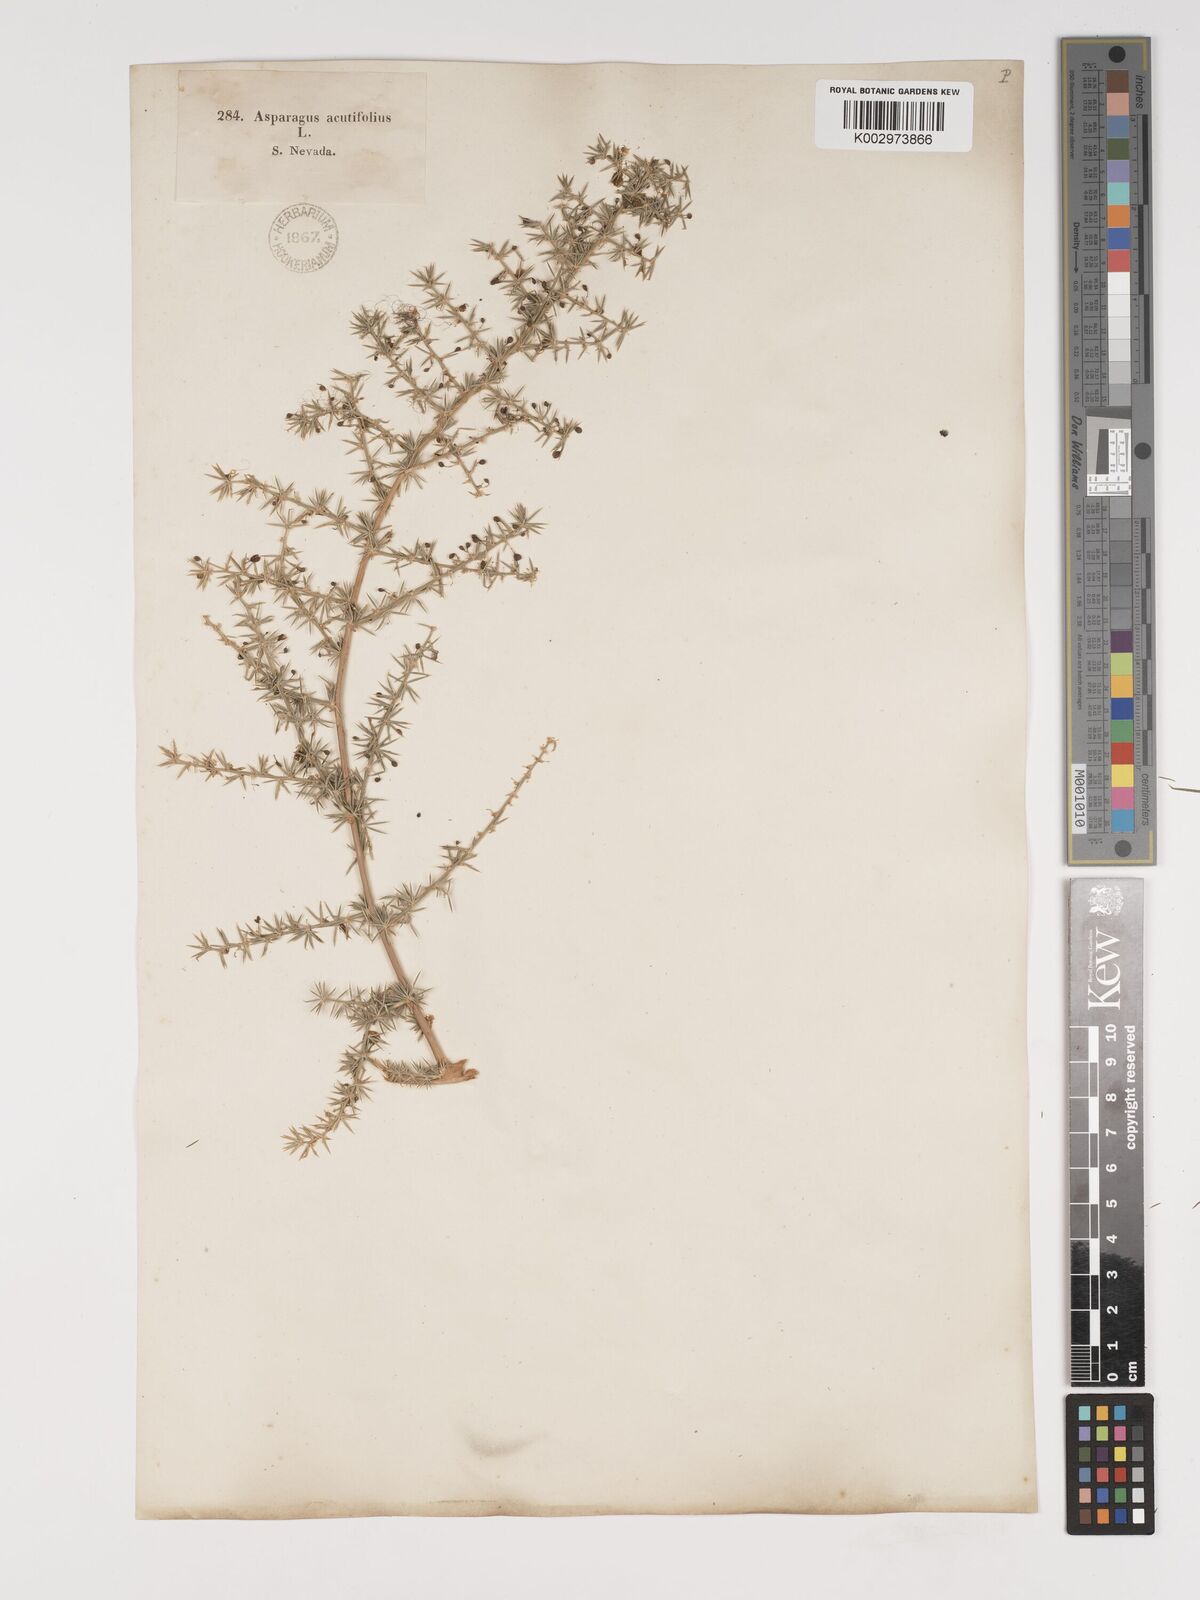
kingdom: Plantae
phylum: Tracheophyta
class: Liliopsida
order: Asparagales
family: Asparagaceae
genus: Asparagus
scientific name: Asparagus acutifolius
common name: Wild asparagus
